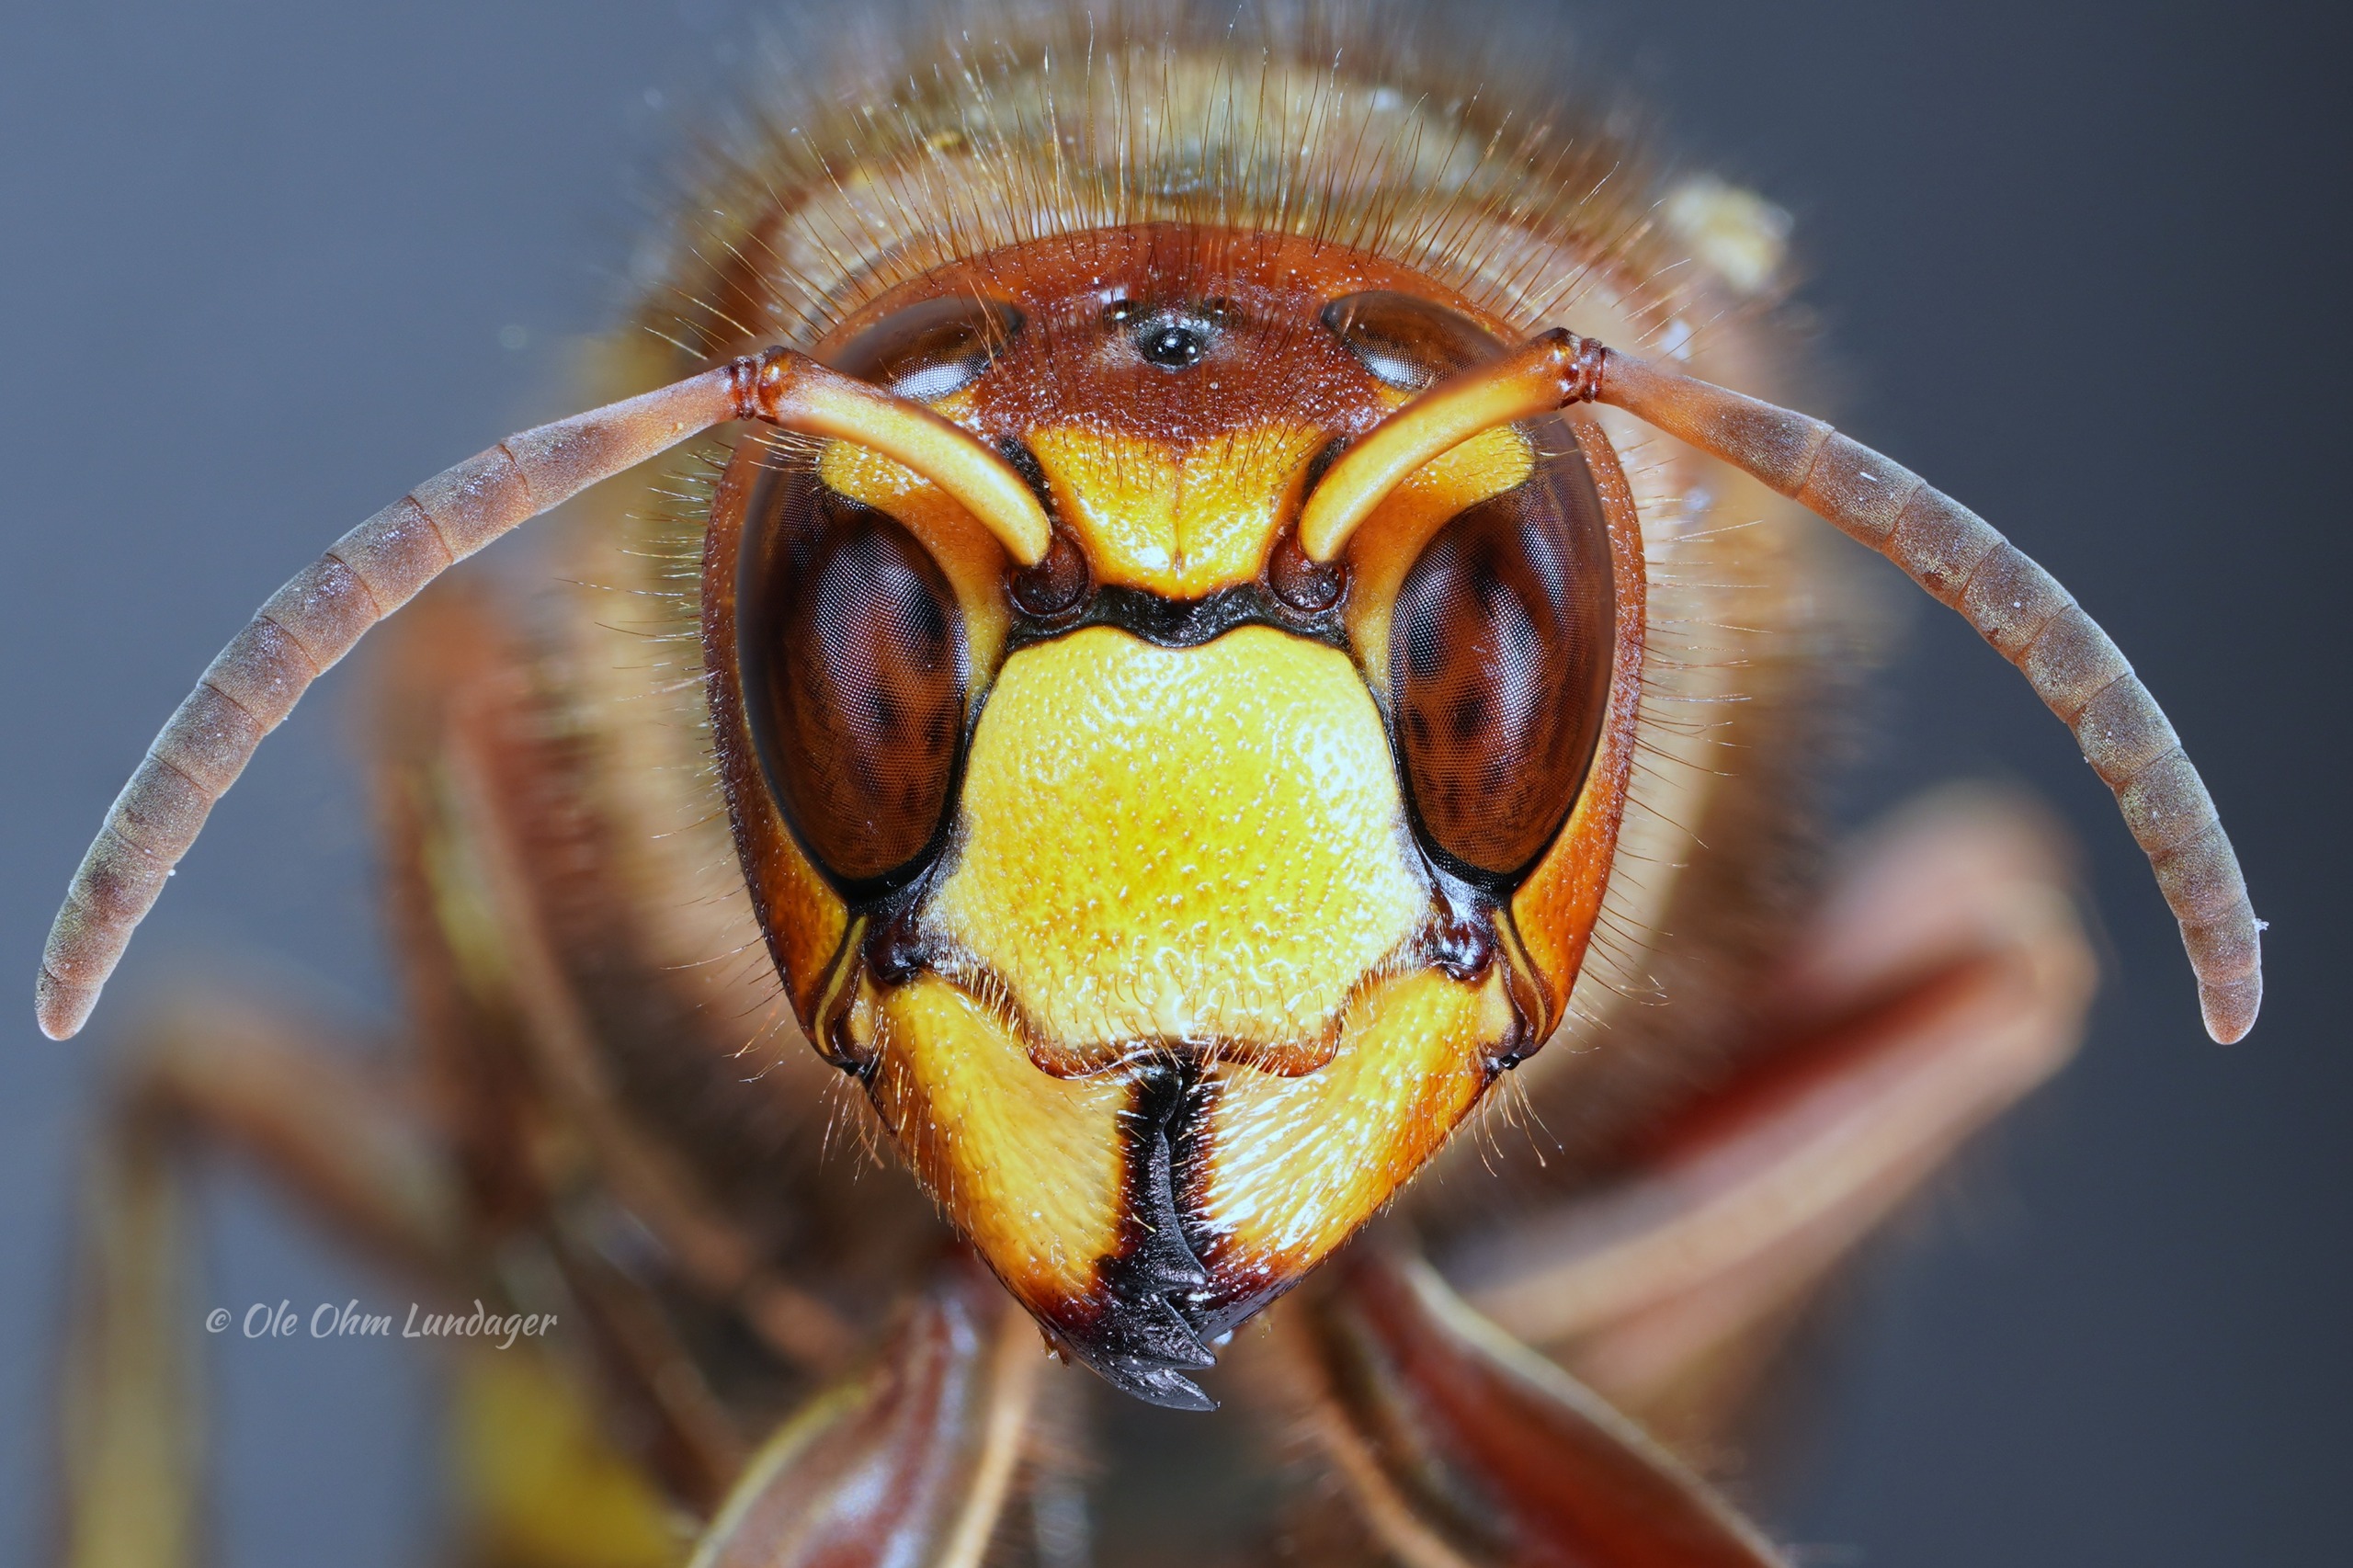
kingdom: Animalia
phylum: Arthropoda
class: Insecta
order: Hymenoptera
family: Vespidae
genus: Vespa
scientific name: Vespa crabro
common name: Stor gedehams
